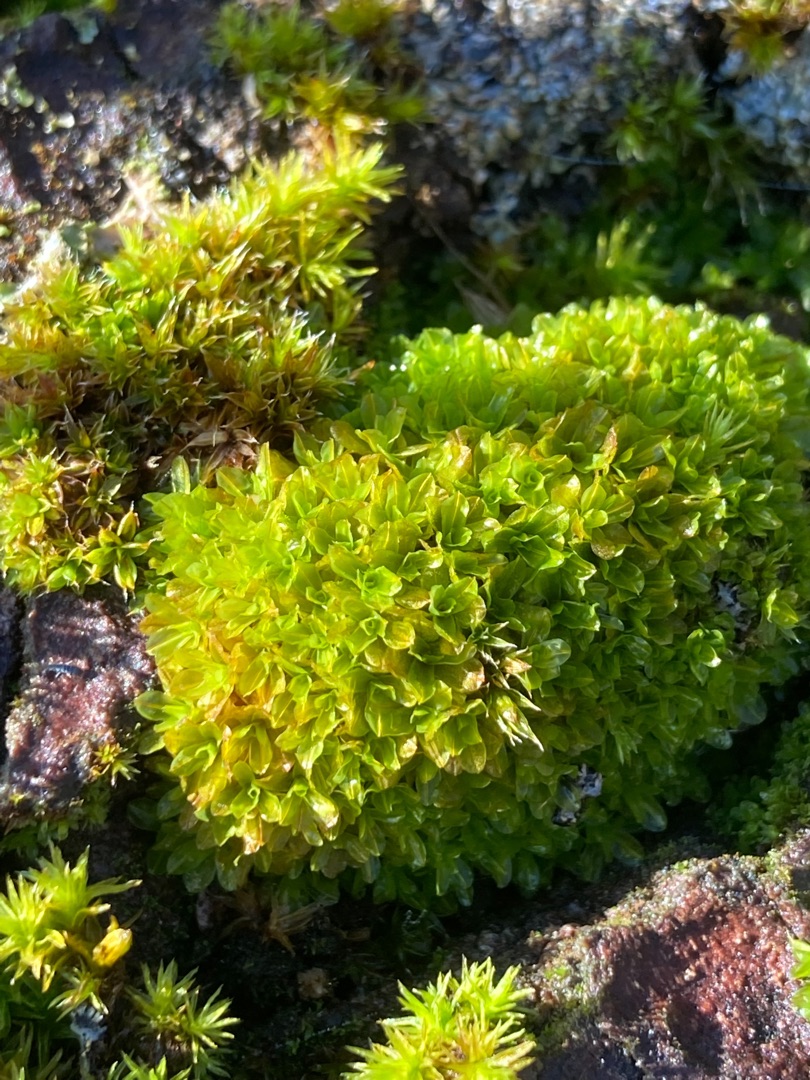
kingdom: Plantae
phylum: Bryophyta
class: Bryopsida
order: Pottiales
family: Pottiaceae
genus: Syntrichia
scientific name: Syntrichia latifolia
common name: Butbladet hårstjerne
